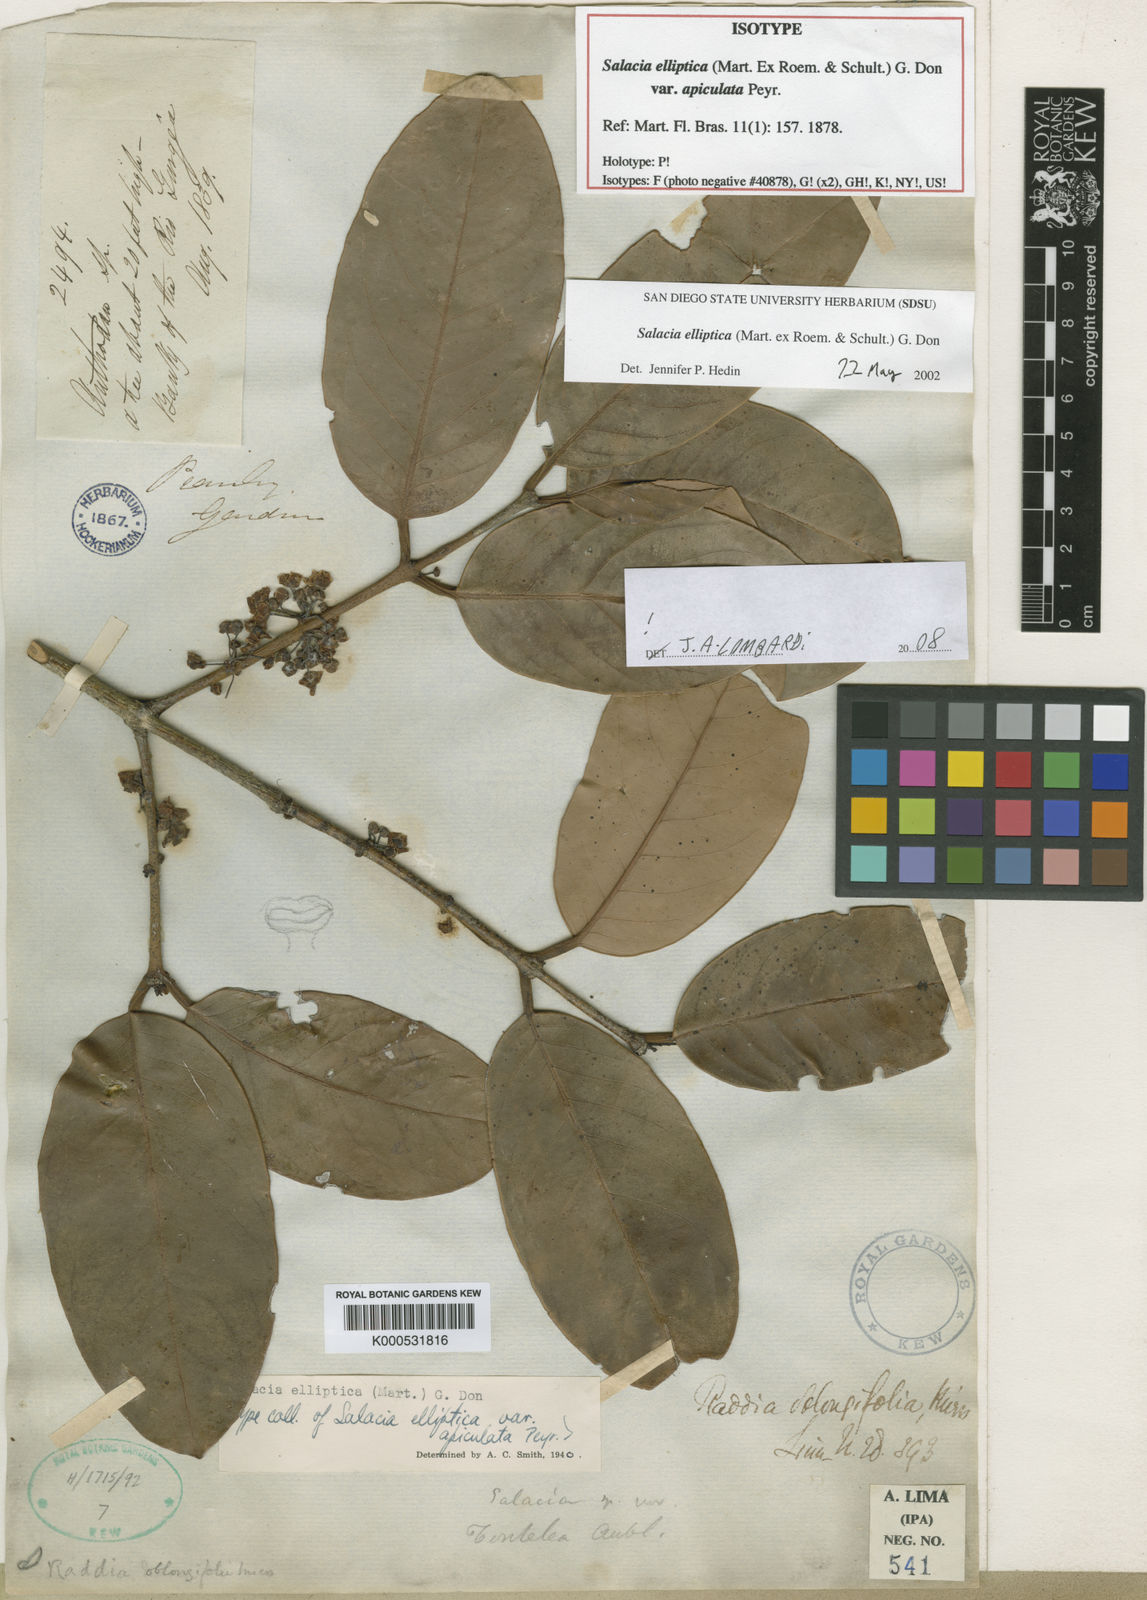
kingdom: Plantae
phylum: Tracheophyta
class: Magnoliopsida
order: Celastrales
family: Celastraceae
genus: Salacia
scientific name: Salacia elliptica
